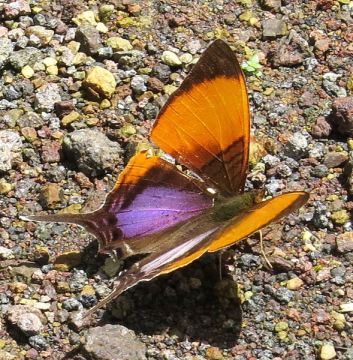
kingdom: Animalia
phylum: Arthropoda
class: Insecta
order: Lepidoptera
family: Nymphalidae
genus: Marpesia
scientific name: Marpesia marcella
